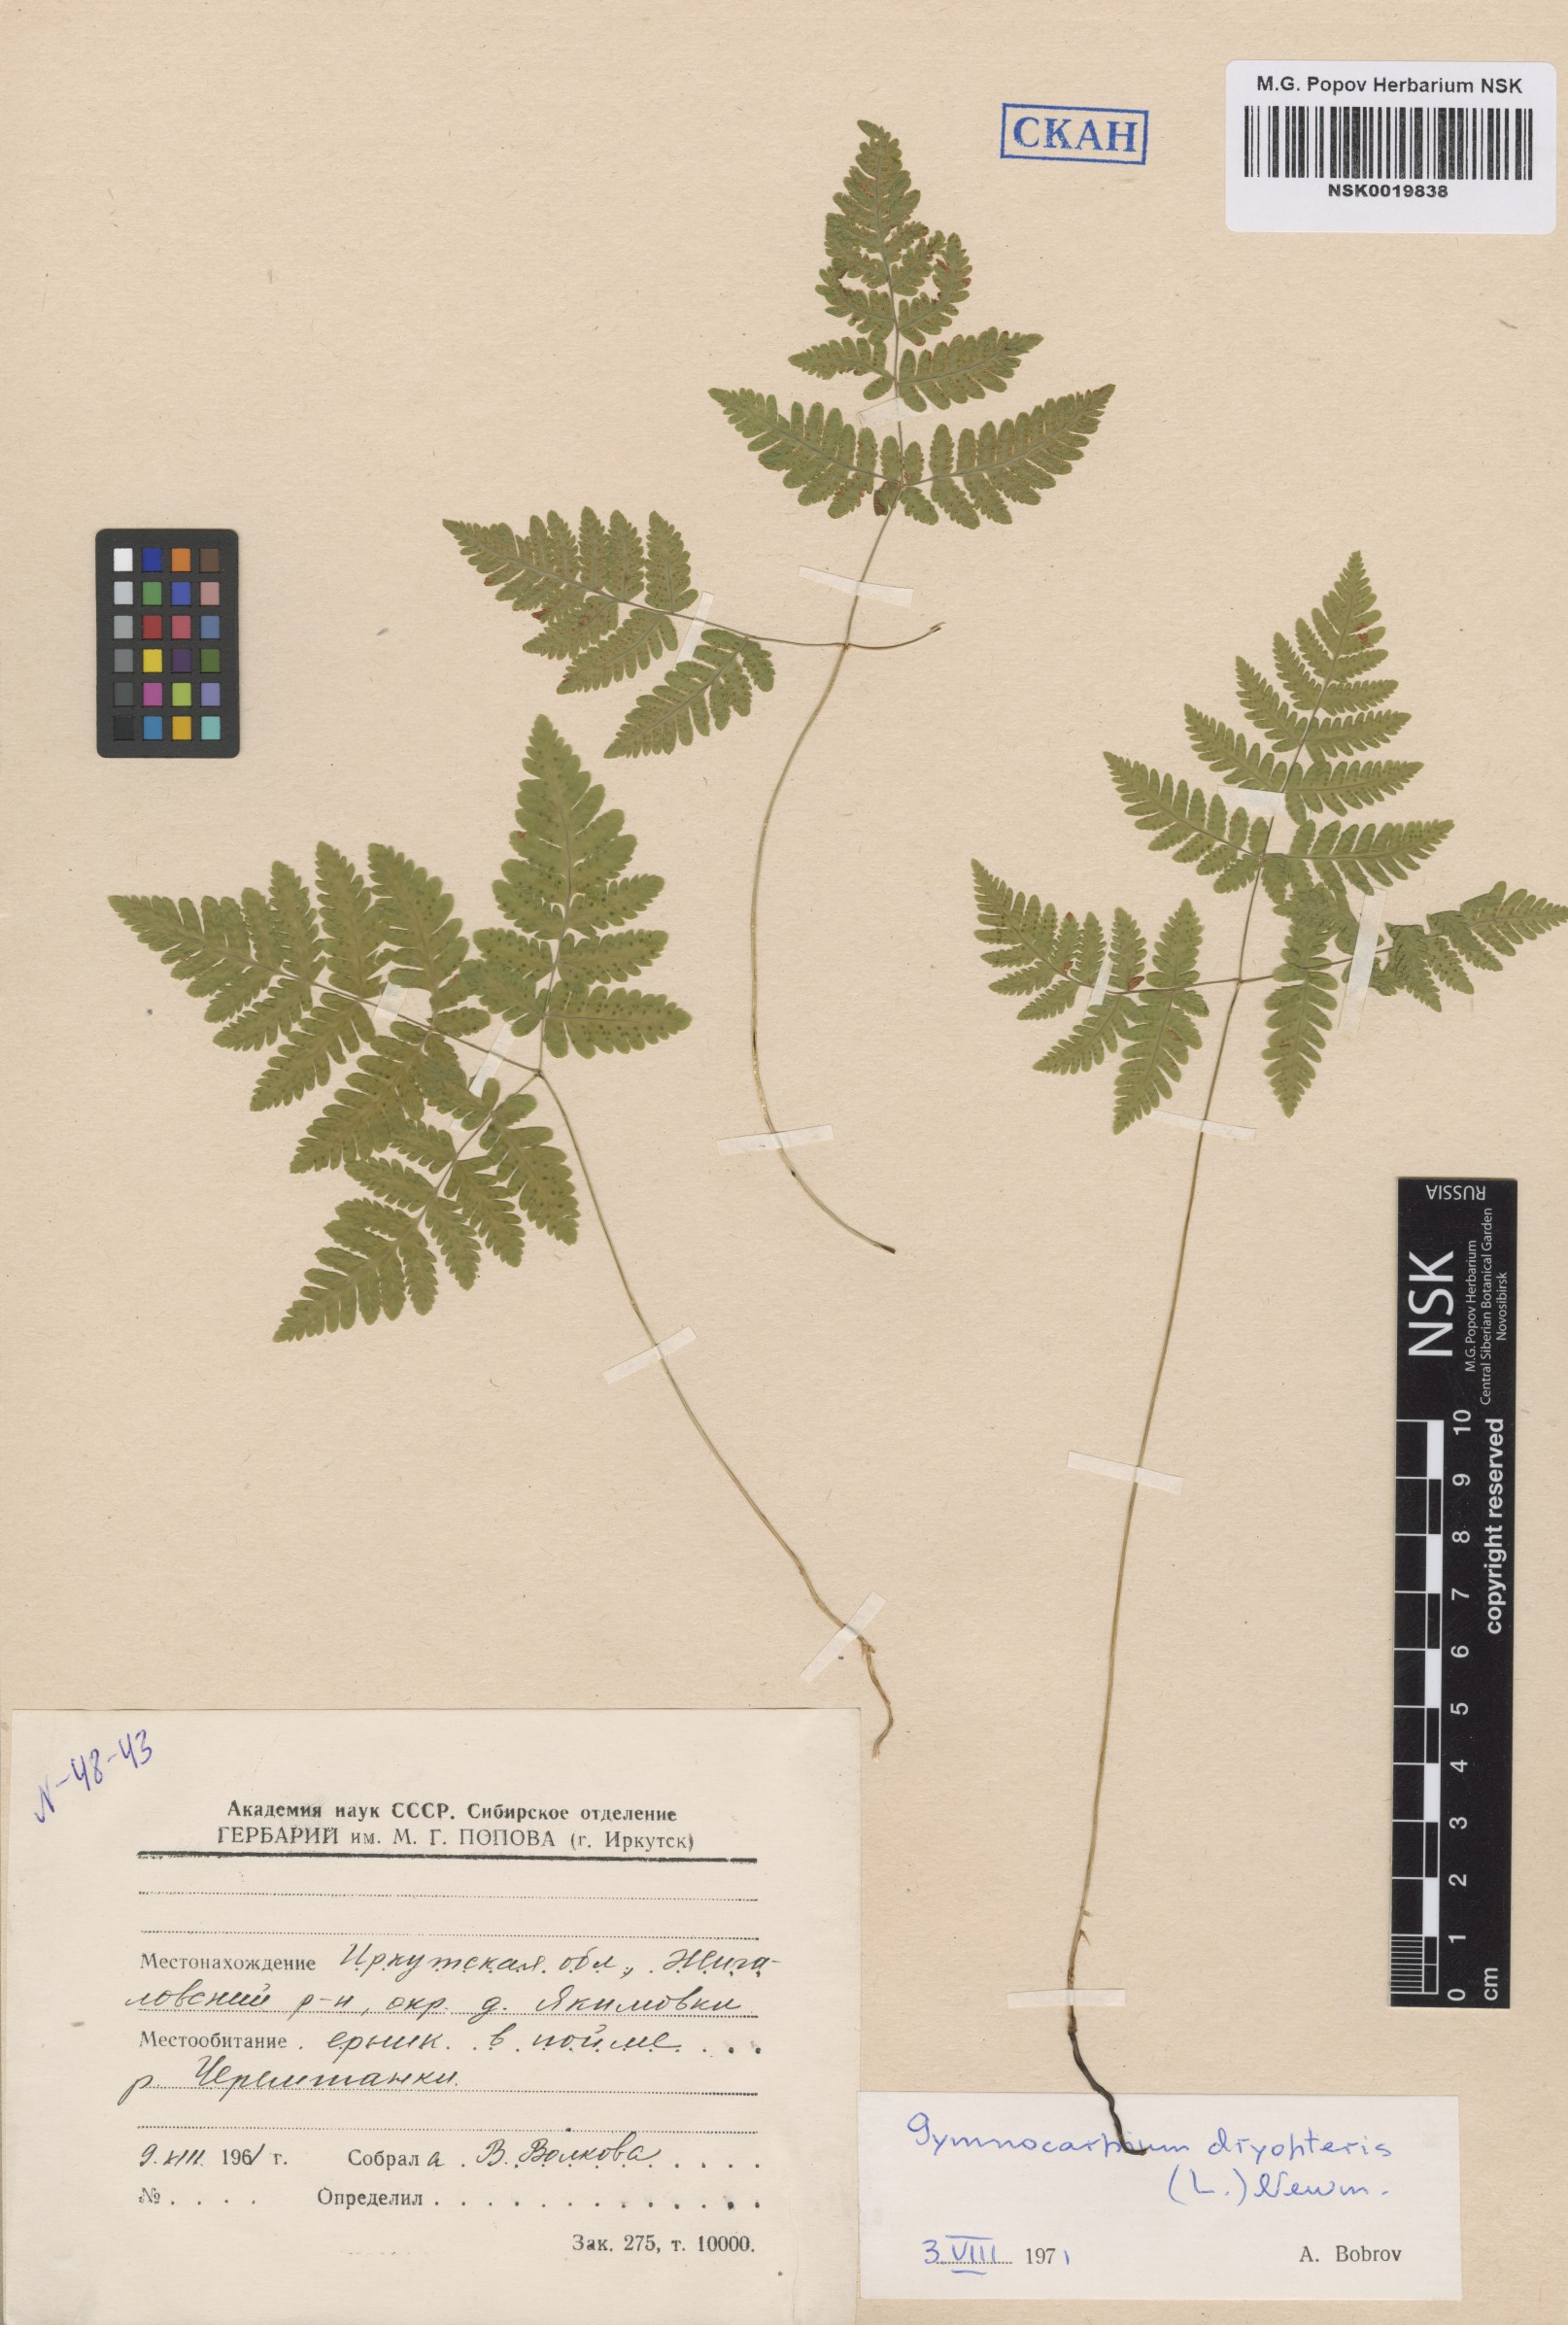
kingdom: Plantae
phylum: Tracheophyta
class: Polypodiopsida
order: Polypodiales
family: Cystopteridaceae
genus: Gymnocarpium
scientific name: Gymnocarpium dryopteris
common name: Oak fern
